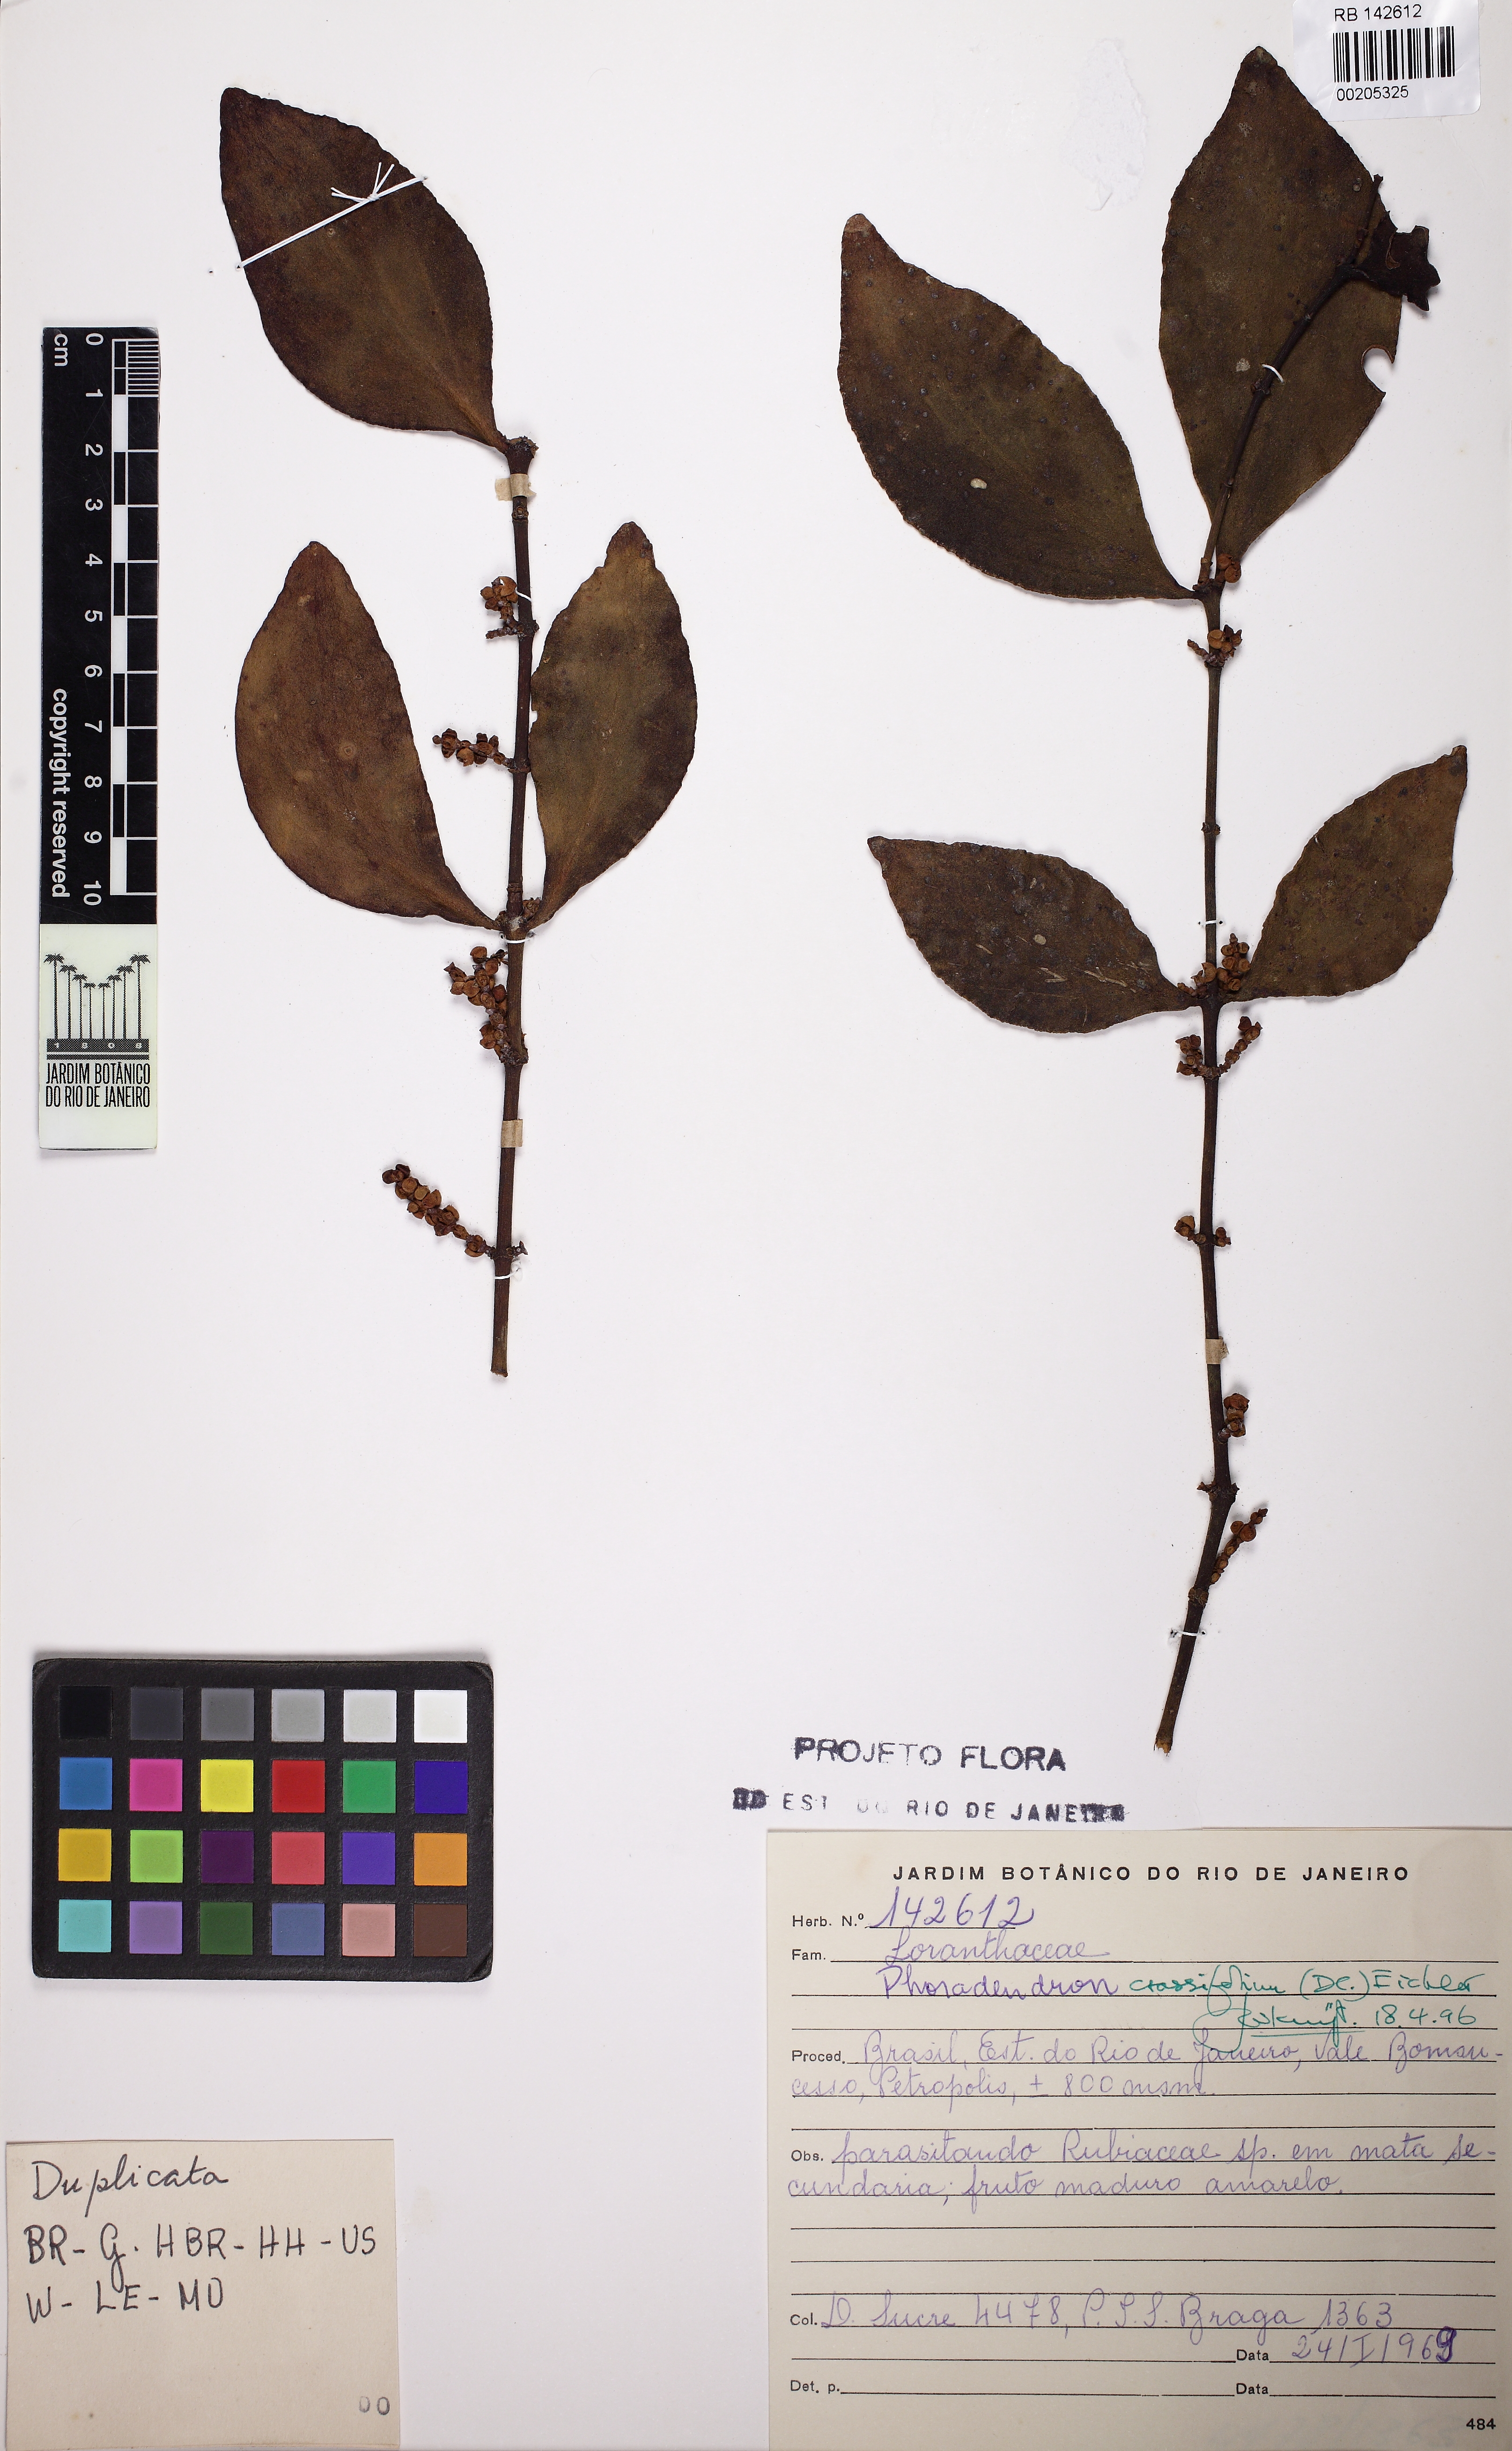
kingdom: Plantae
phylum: Tracheophyta
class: Magnoliopsida
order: Santalales
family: Viscaceae
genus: Phoradendron
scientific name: Phoradendron crassifolium
